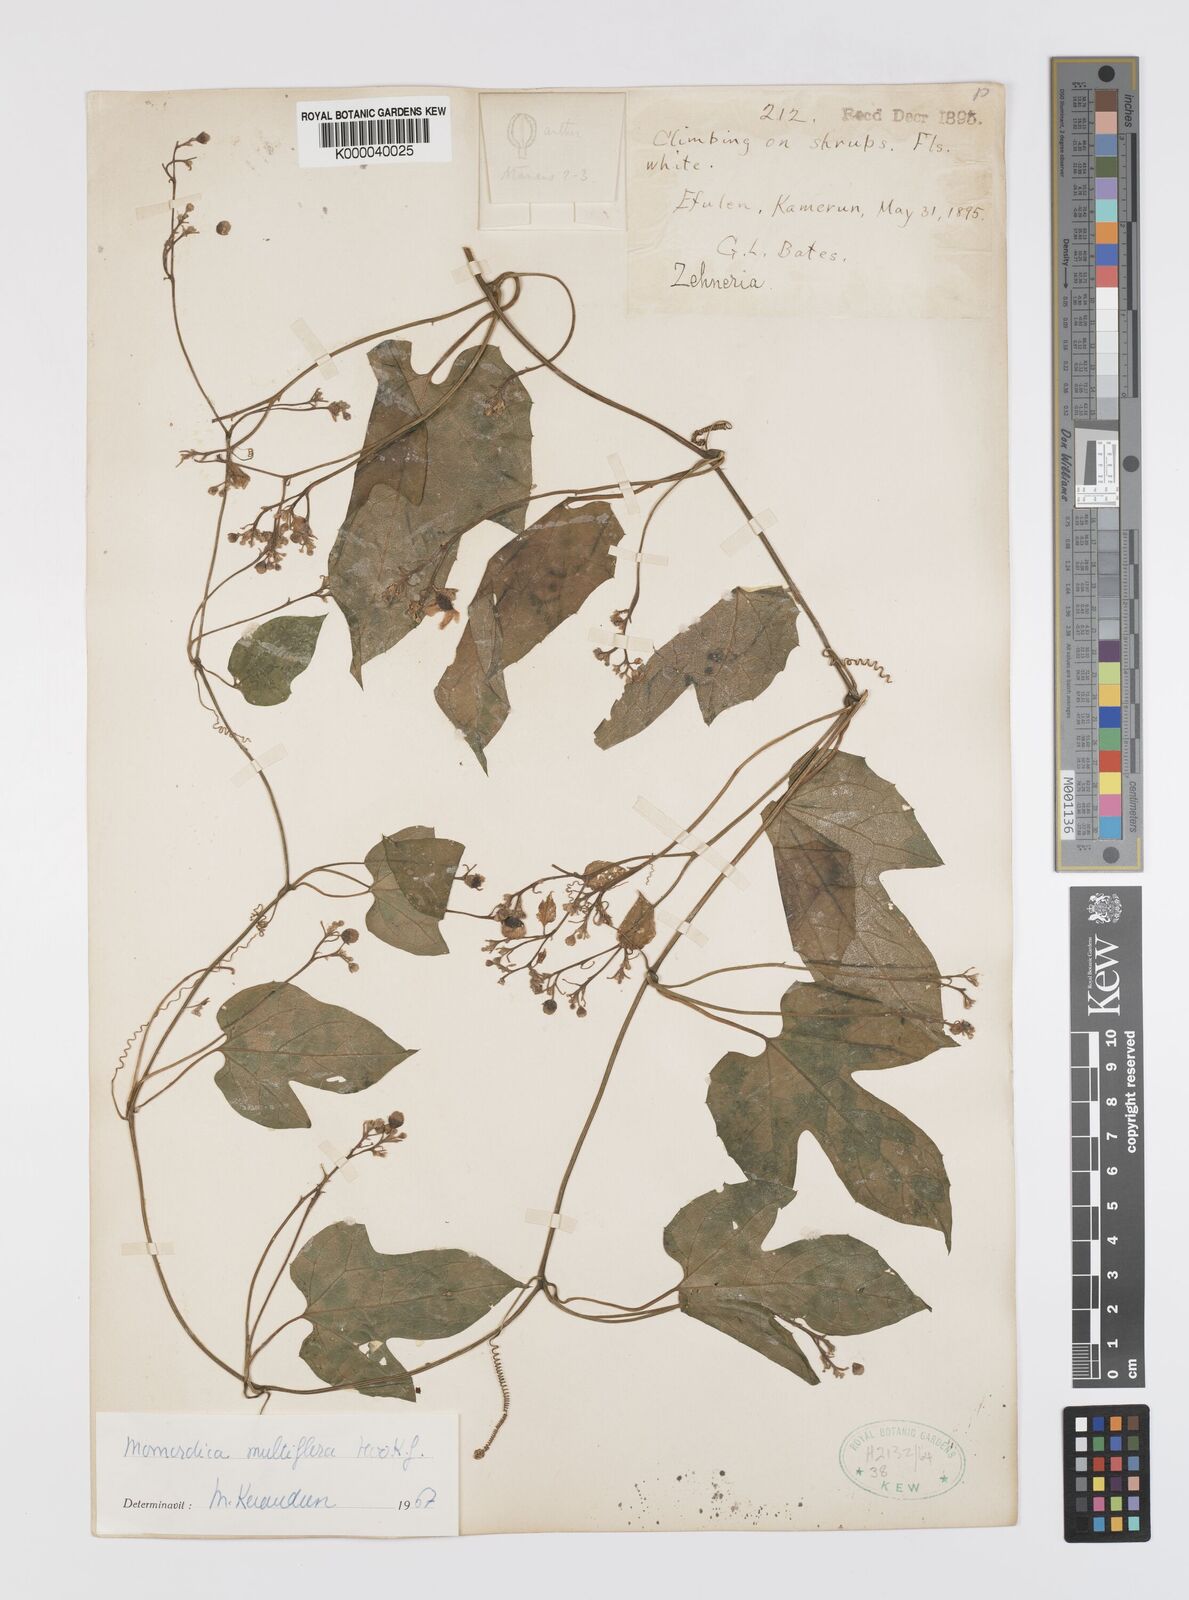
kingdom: Plantae
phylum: Tracheophyta
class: Magnoliopsida
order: Cucurbitales
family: Cucurbitaceae
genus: Momordica
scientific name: Momordica multiflora
